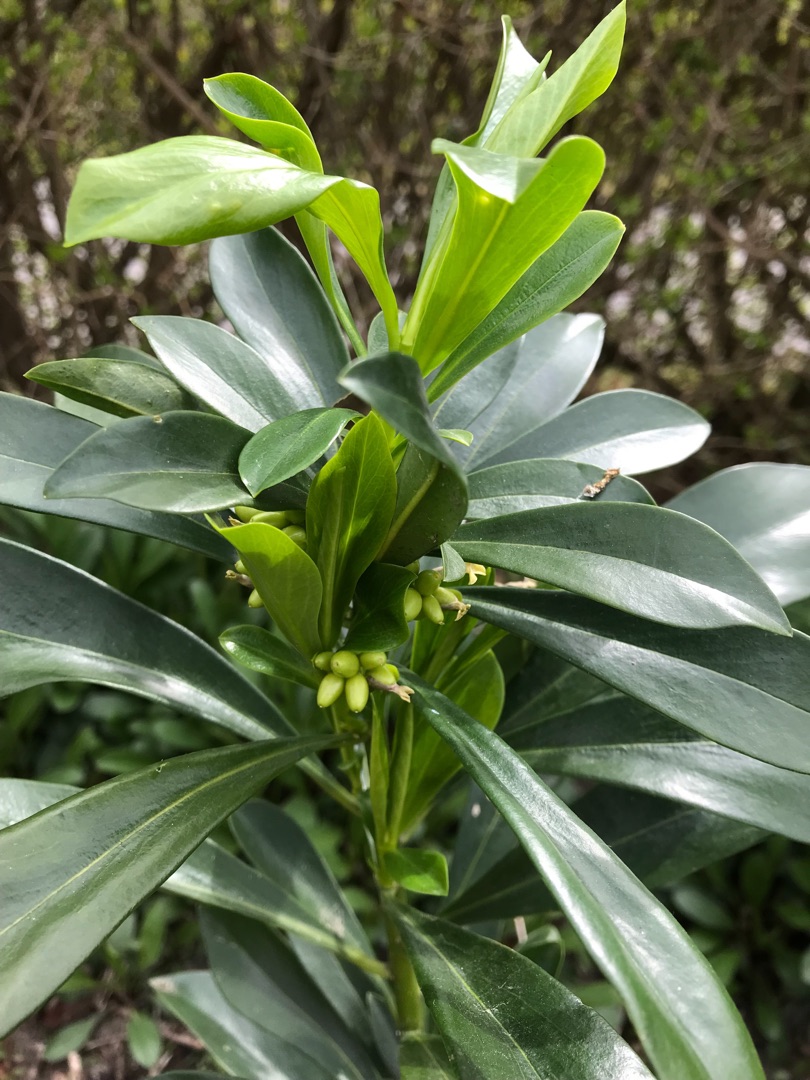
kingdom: Plantae
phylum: Tracheophyta
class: Magnoliopsida
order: Malvales
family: Thymelaeaceae
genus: Daphne
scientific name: Daphne laureola
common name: Laurbær-dafne
